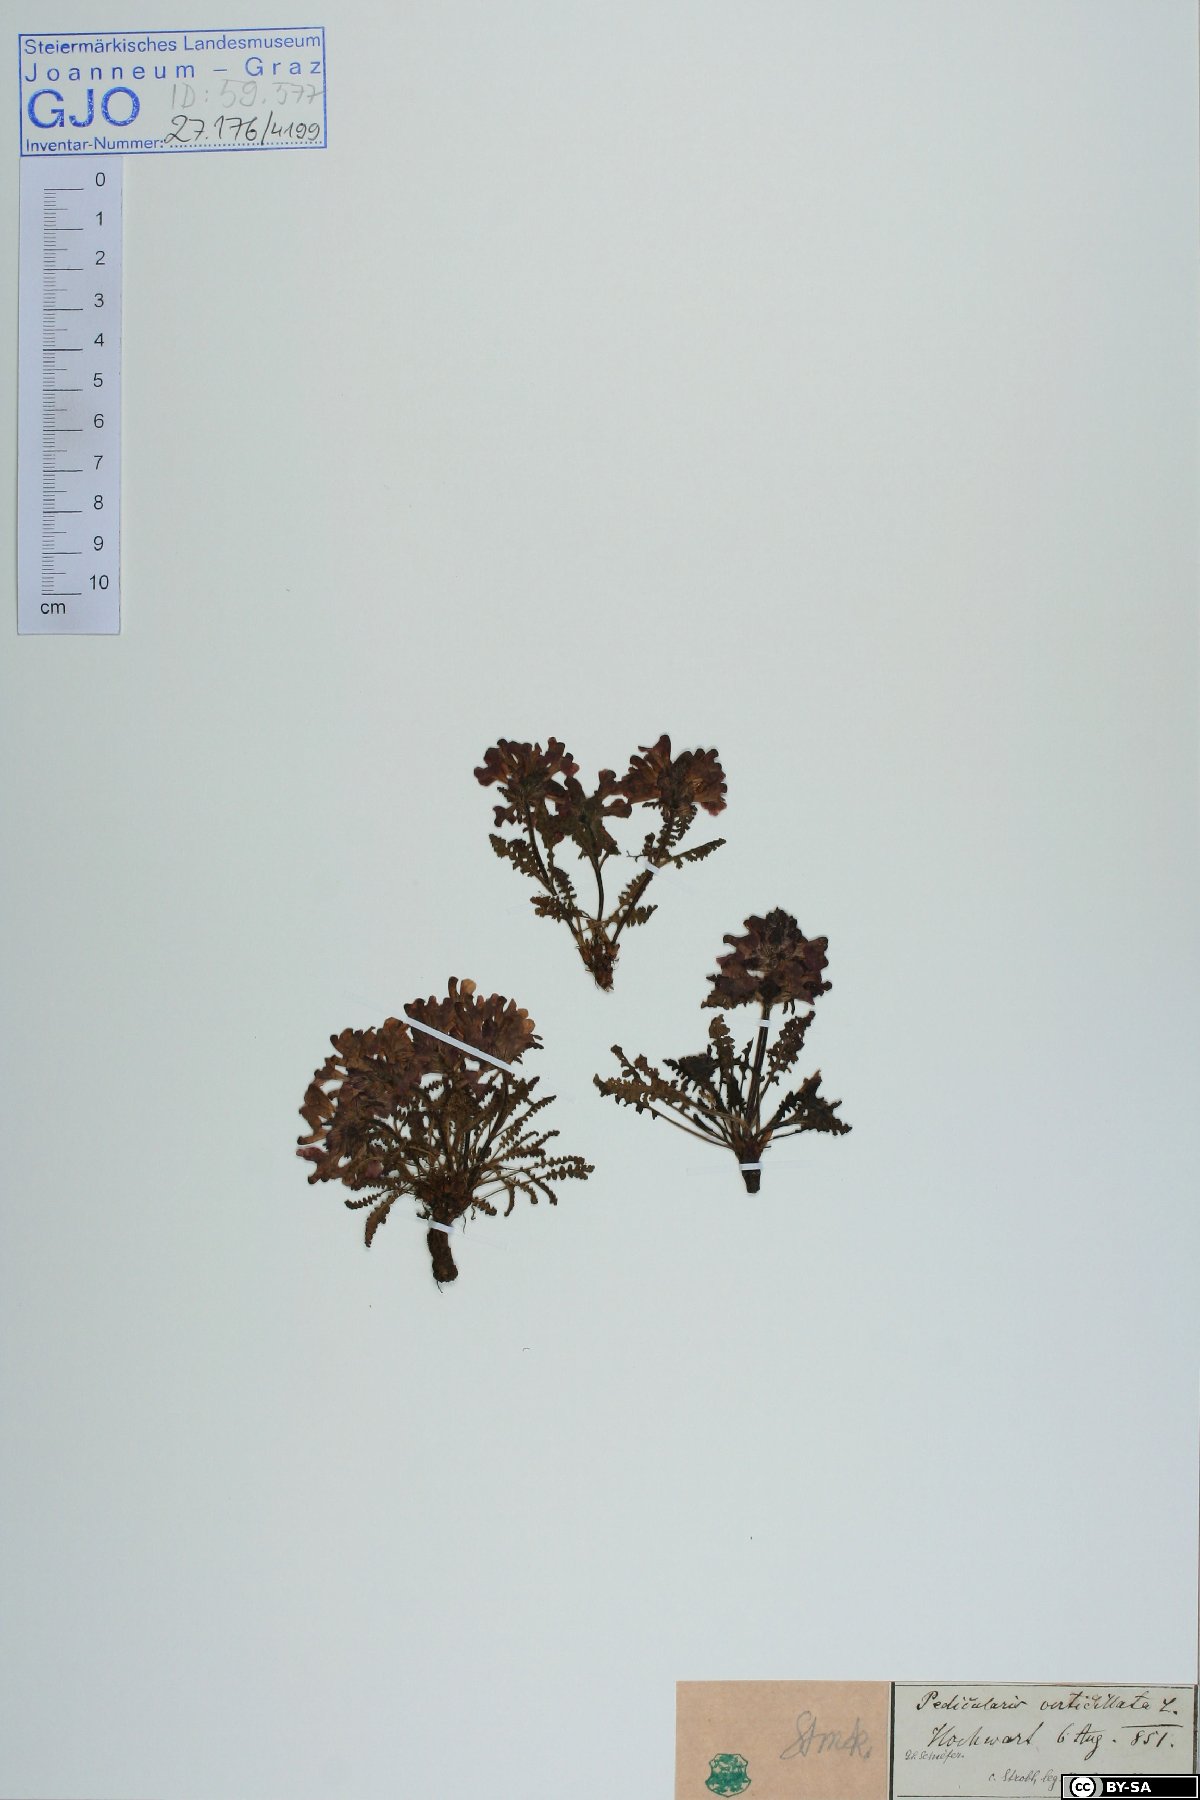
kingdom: Plantae
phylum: Tracheophyta
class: Magnoliopsida
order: Lamiales
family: Orobanchaceae
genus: Pedicularis
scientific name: Pedicularis verticillata
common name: Whorled lousewort
